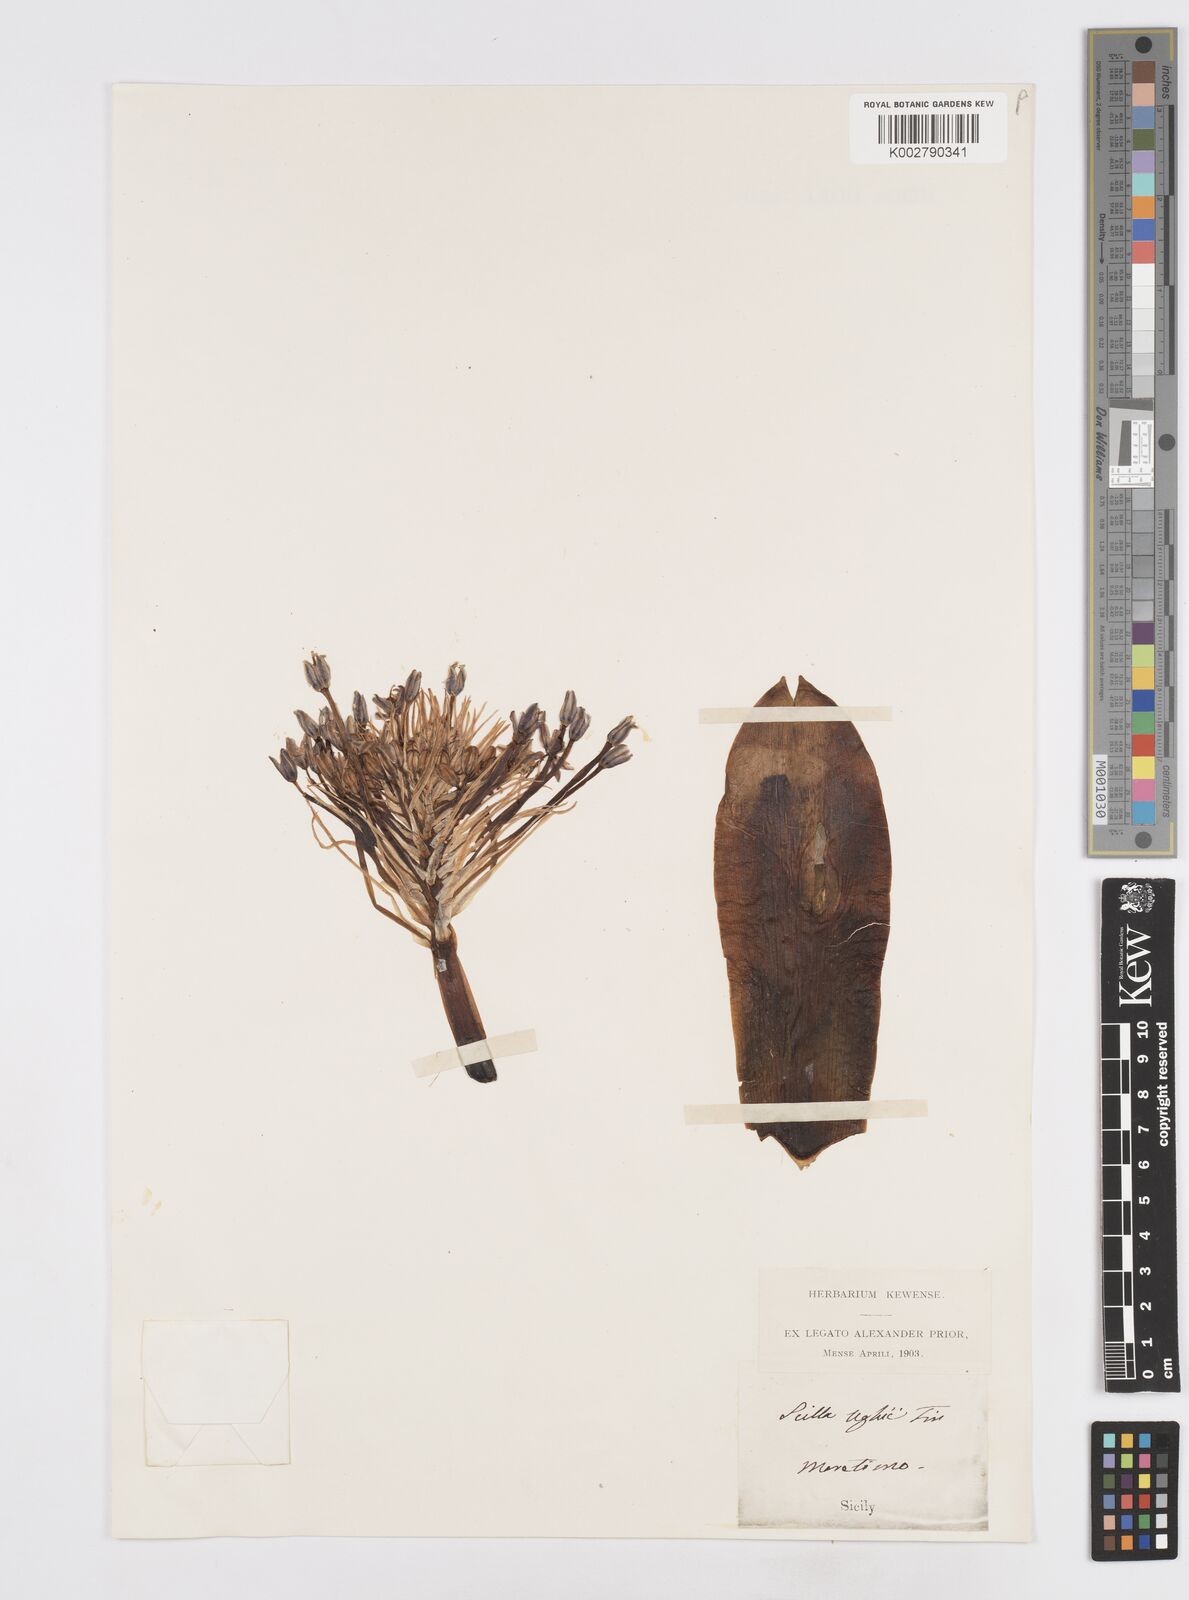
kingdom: Plantae
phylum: Tracheophyta
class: Liliopsida
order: Asparagales
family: Asparagaceae
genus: Scilla
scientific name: Scilla
